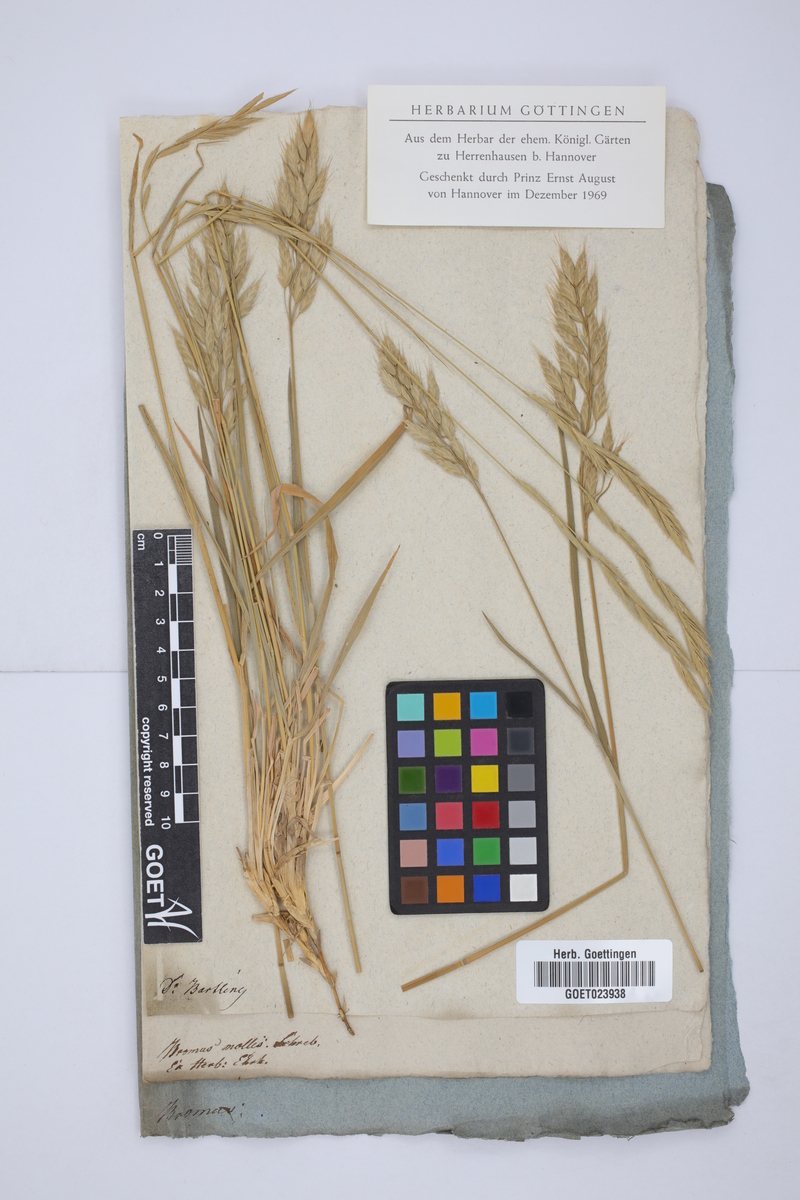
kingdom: Plantae
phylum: Tracheophyta
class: Liliopsida
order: Poales
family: Poaceae
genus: Bromus
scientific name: Bromus hordeaceus
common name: Soft brome
